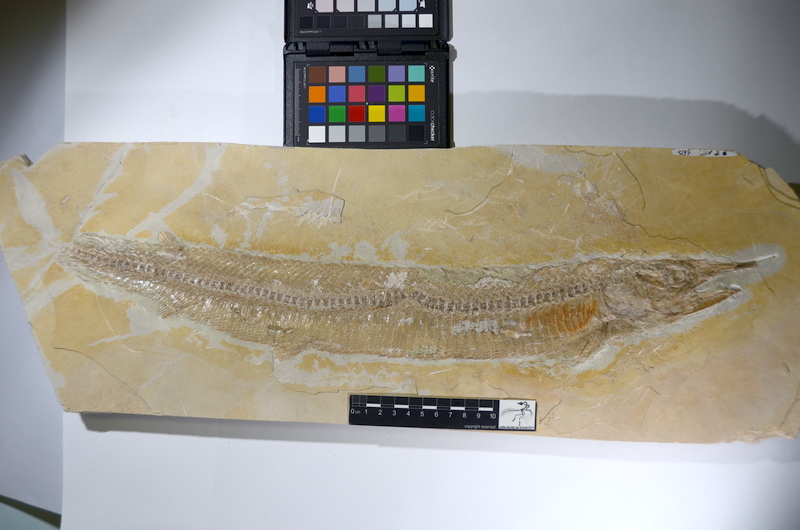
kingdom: Animalia
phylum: Chordata
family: Aspidorhynchidae
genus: Aspidorhynchus
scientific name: Aspidorhynchus acutirostris
